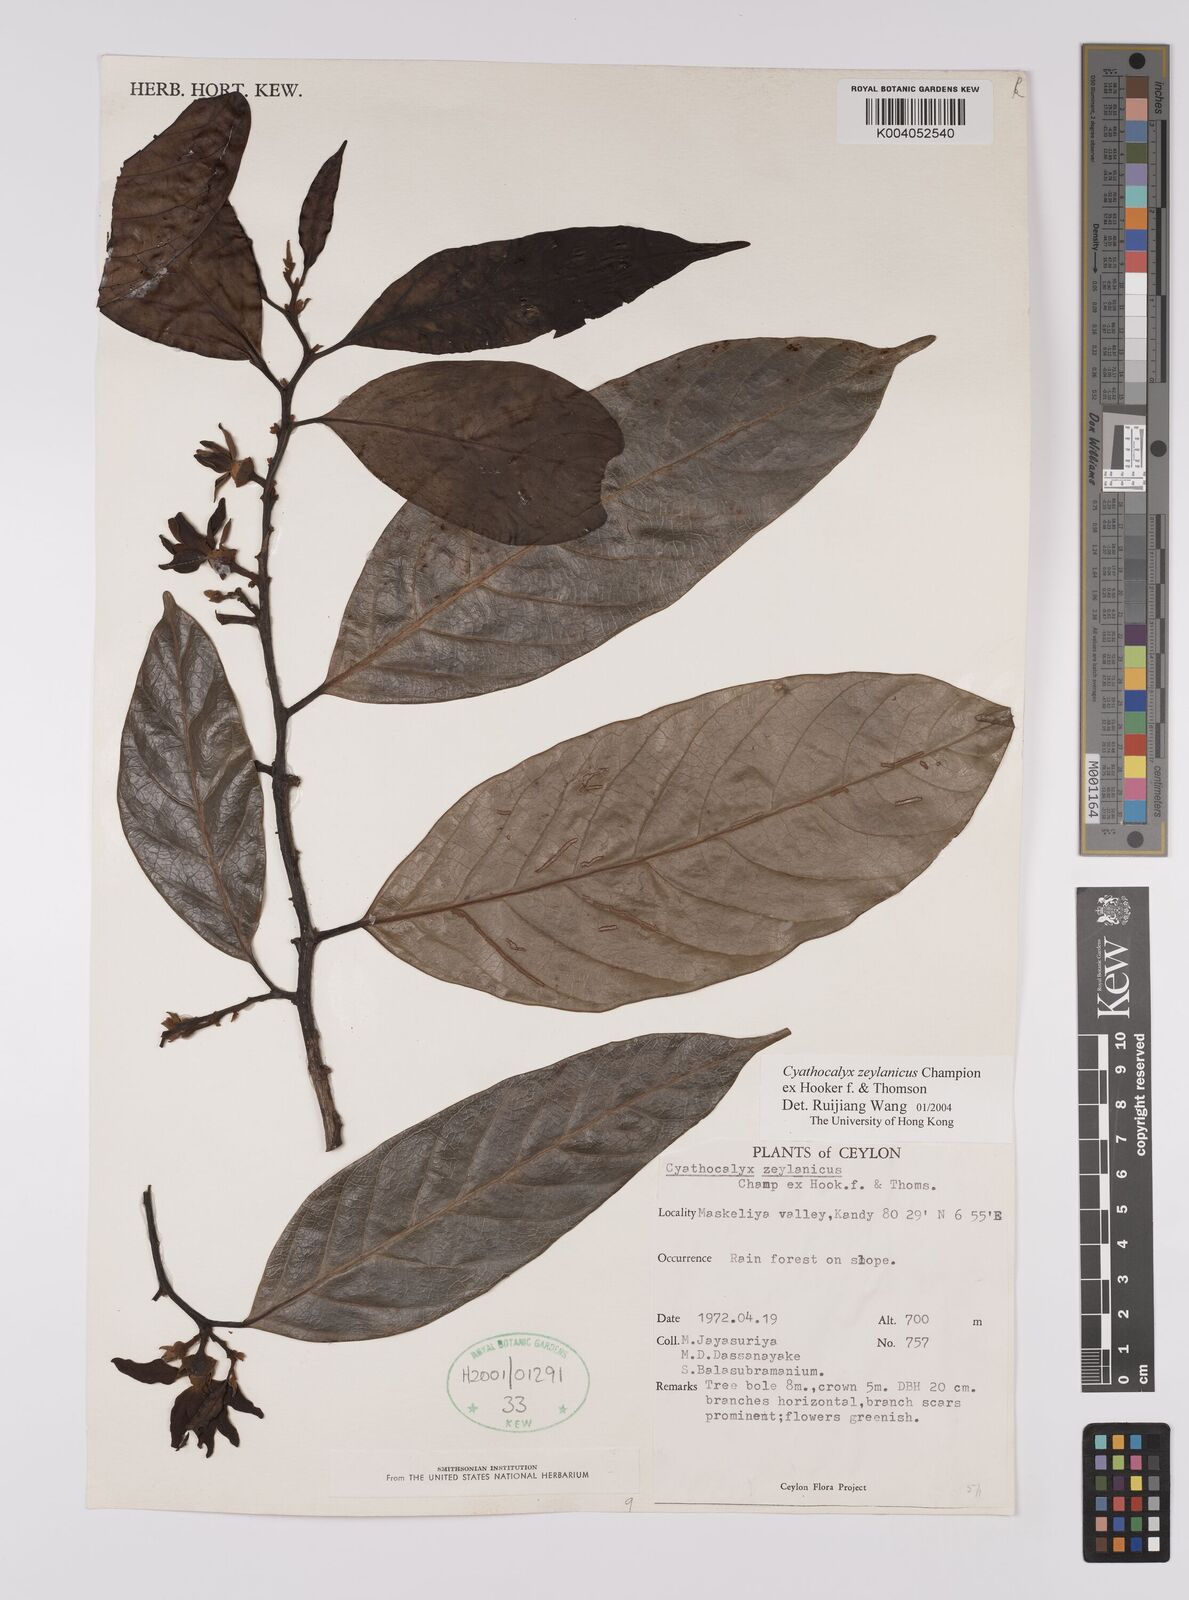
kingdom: Plantae
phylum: Tracheophyta
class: Magnoliopsida
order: Magnoliales
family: Annonaceae
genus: Cyathocalyx
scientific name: Cyathocalyx zeylanicus
